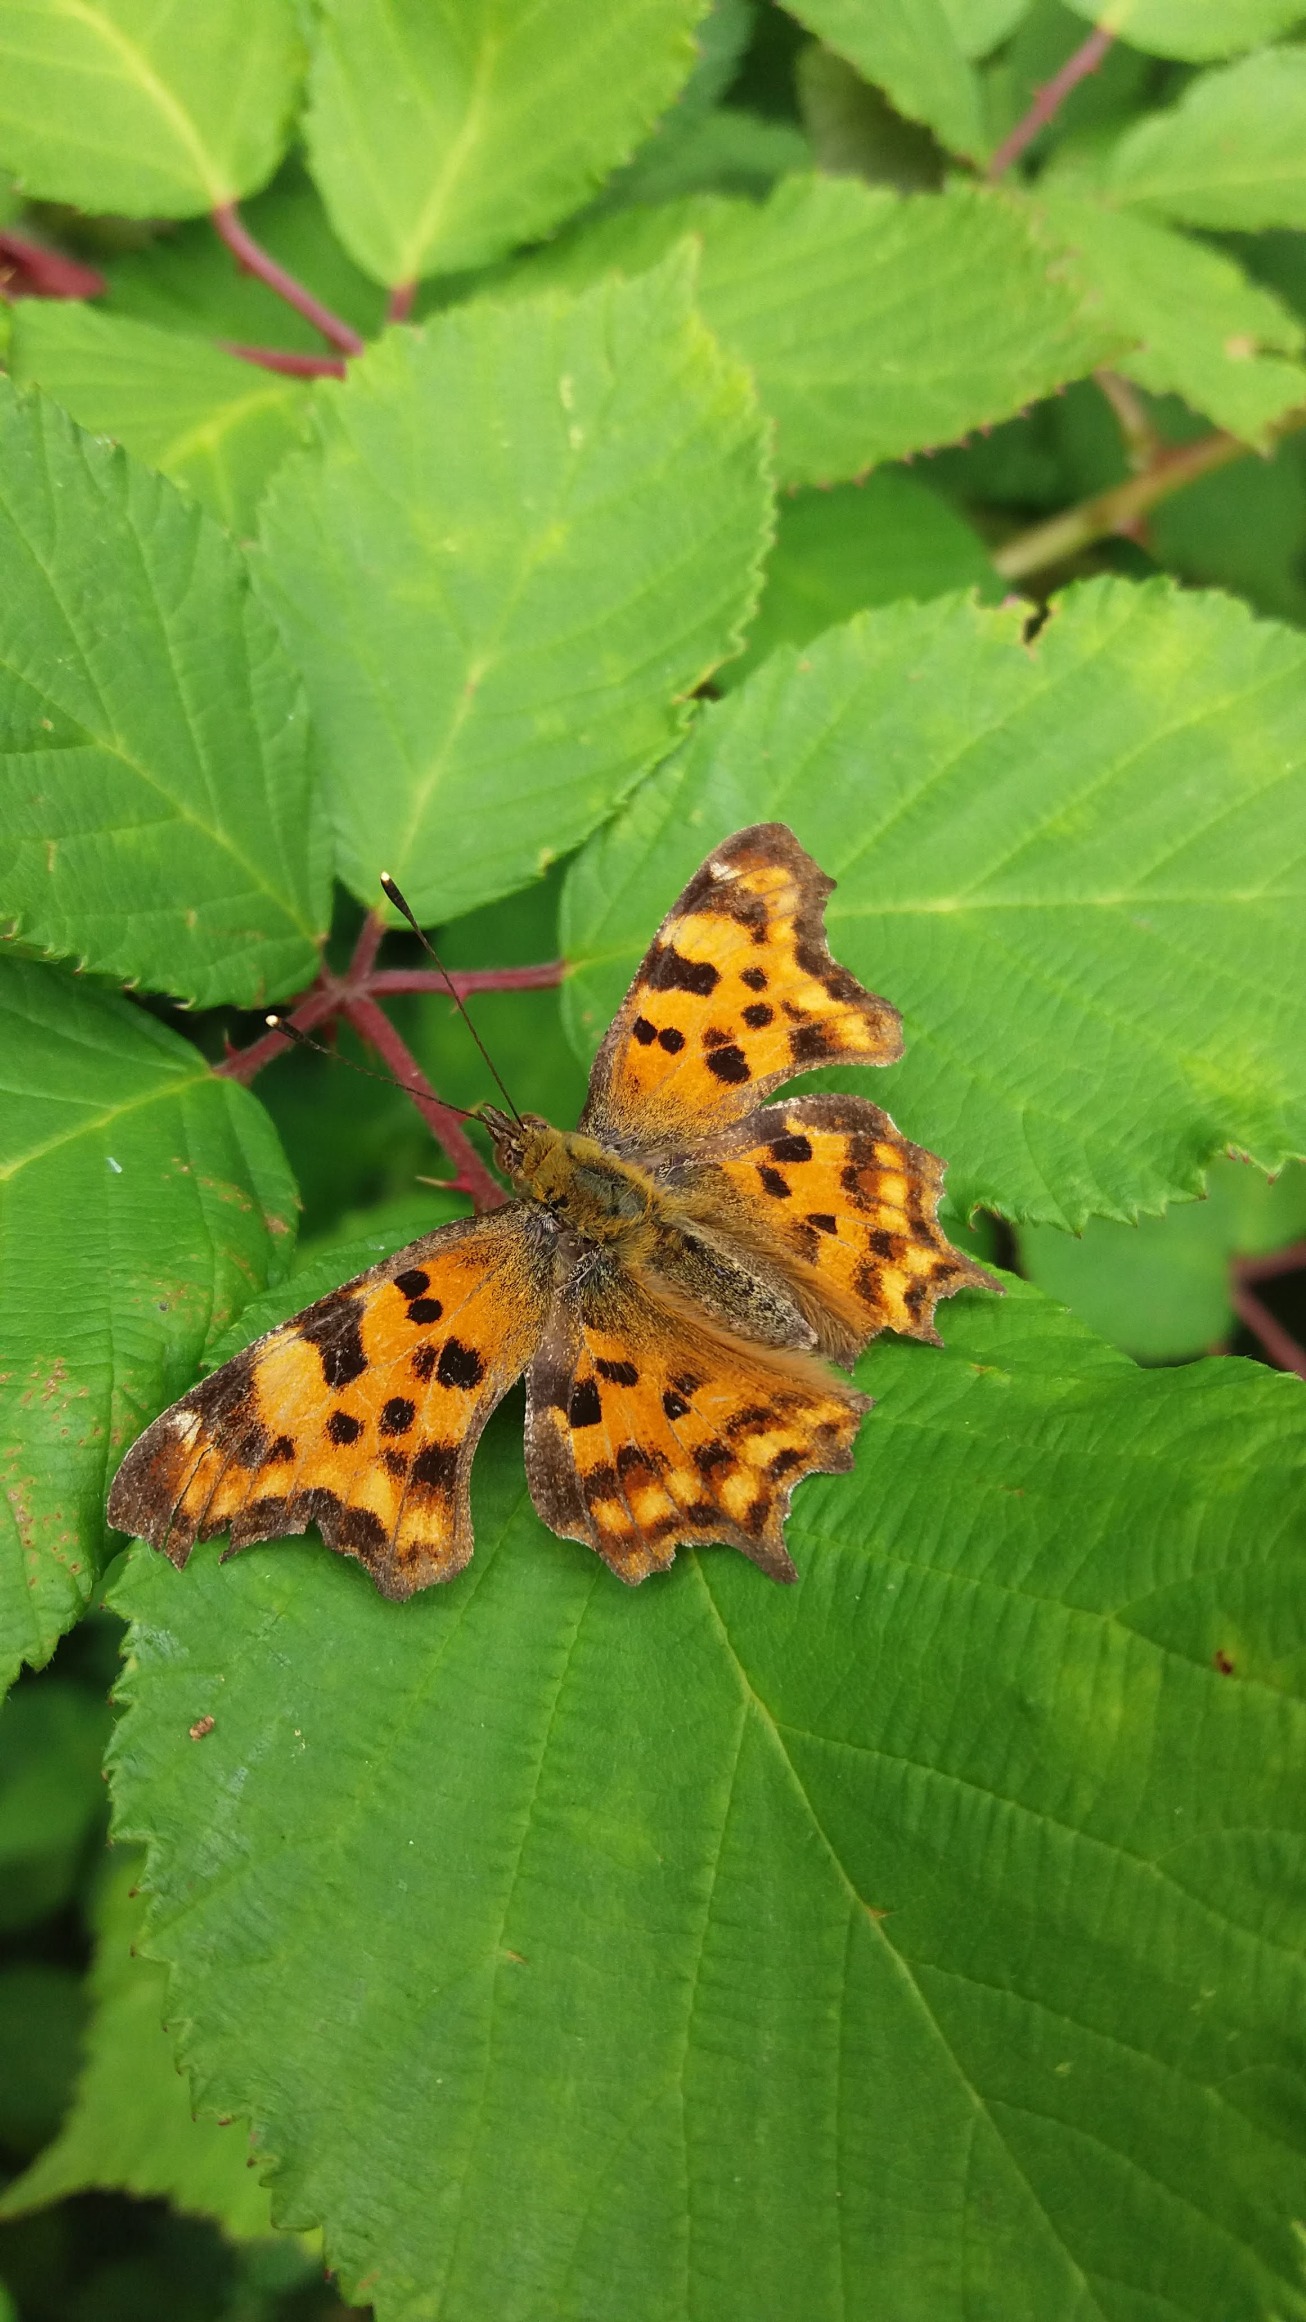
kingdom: Animalia
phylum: Arthropoda
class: Insecta
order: Lepidoptera
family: Nymphalidae
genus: Polygonia
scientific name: Polygonia c-album
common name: Det hvide C
